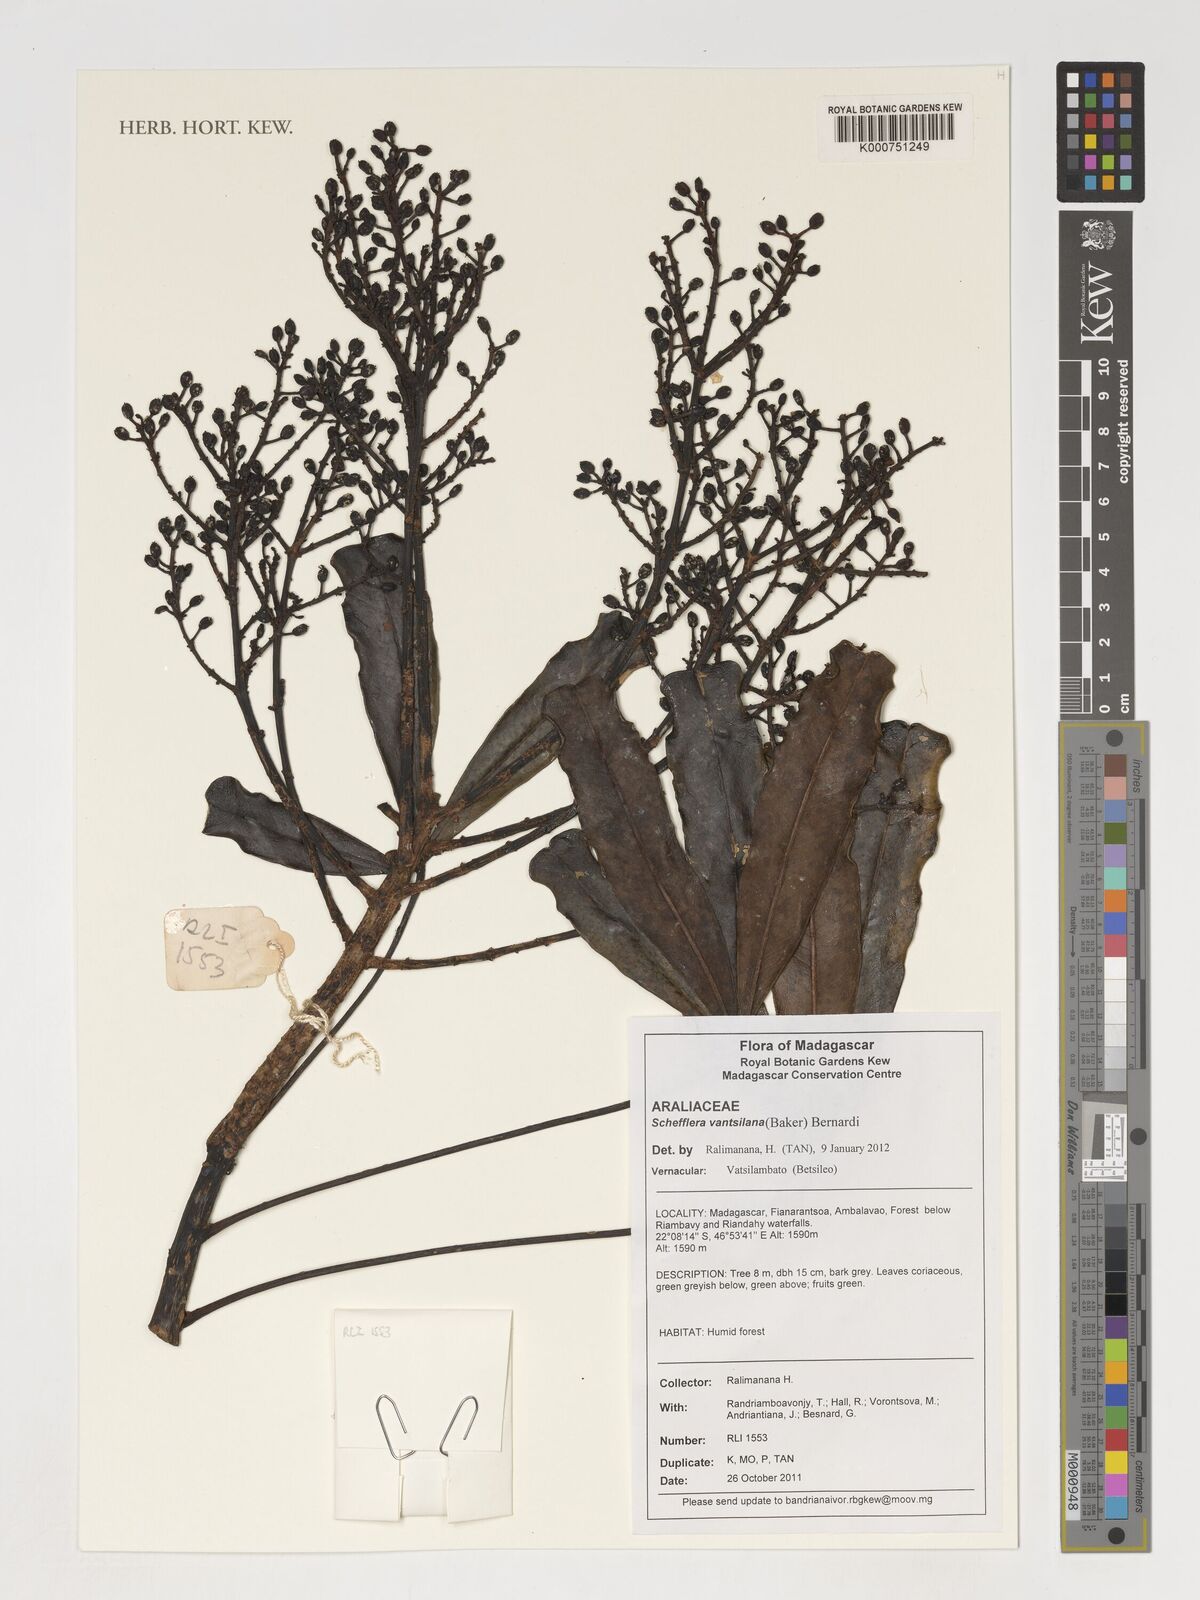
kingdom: Plantae
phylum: Tracheophyta
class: Magnoliopsida
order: Apiales
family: Araliaceae
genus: Neocussonia
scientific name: Neocussonia vantsilana
